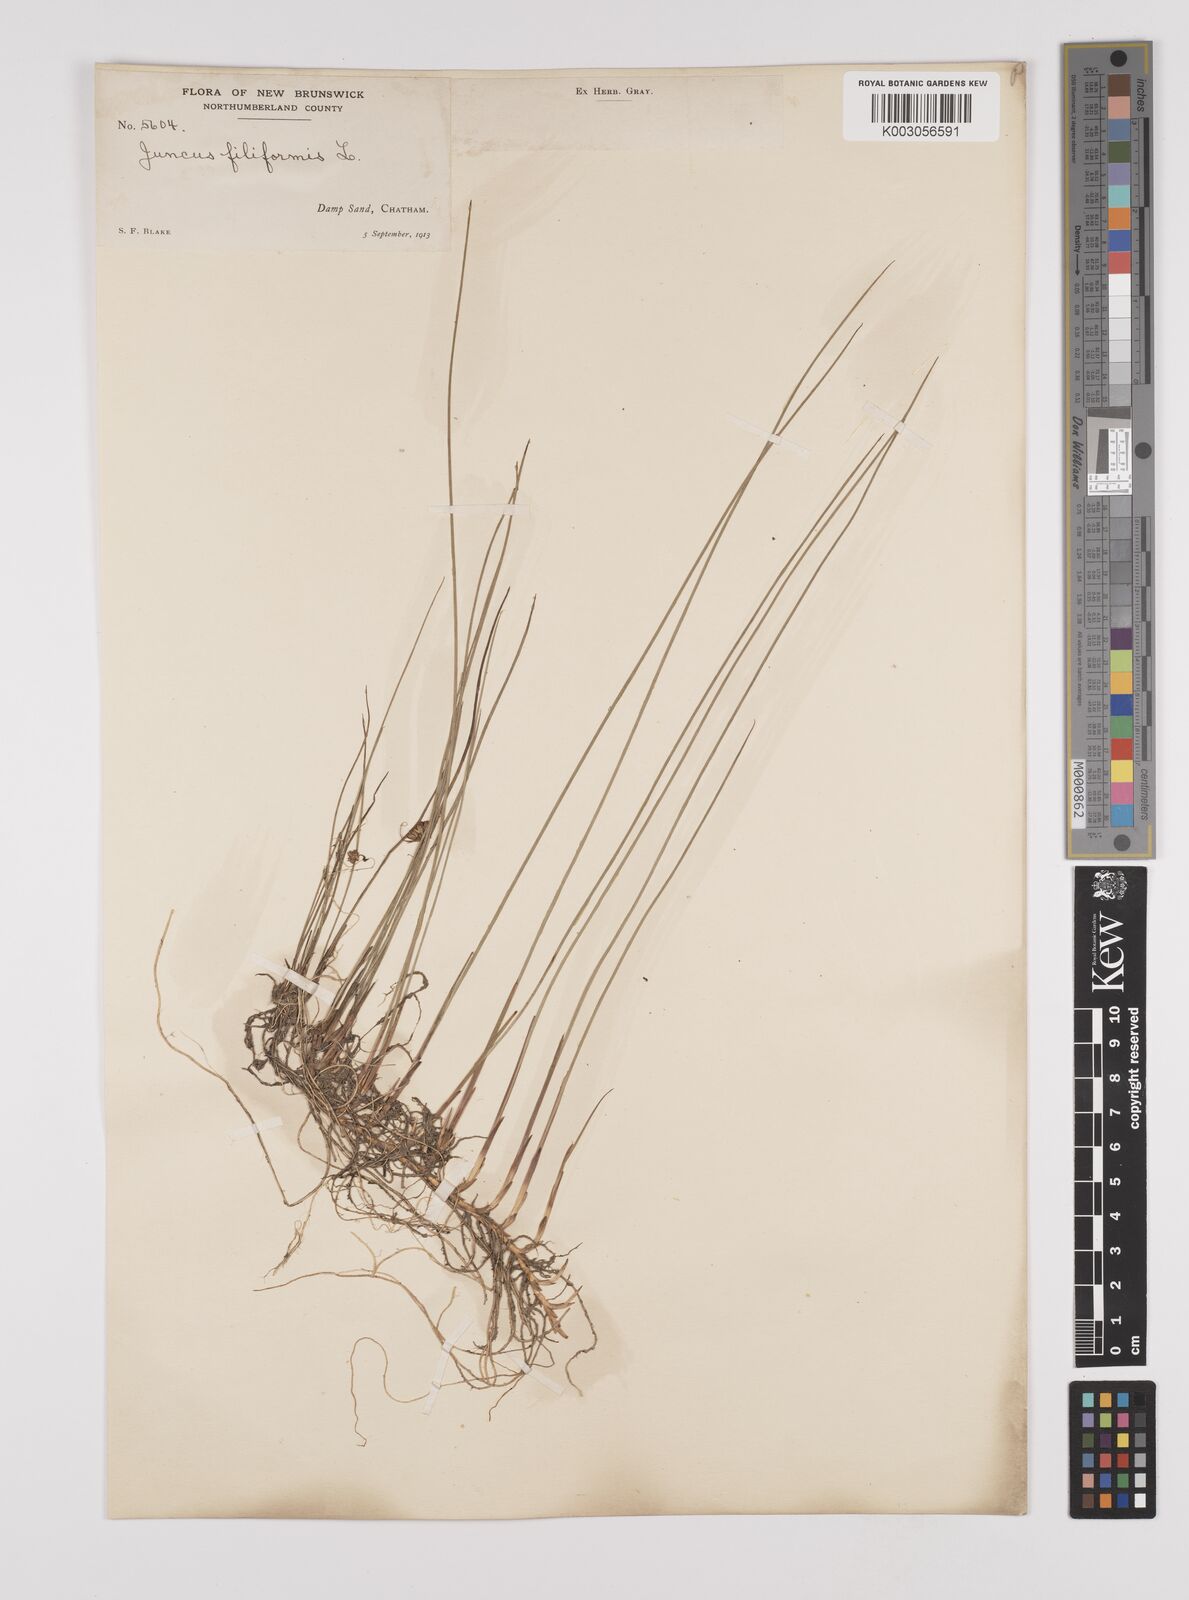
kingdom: Plantae
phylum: Tracheophyta
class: Liliopsida
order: Poales
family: Juncaceae
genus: Juncus
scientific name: Juncus filiformis
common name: Thread rush
